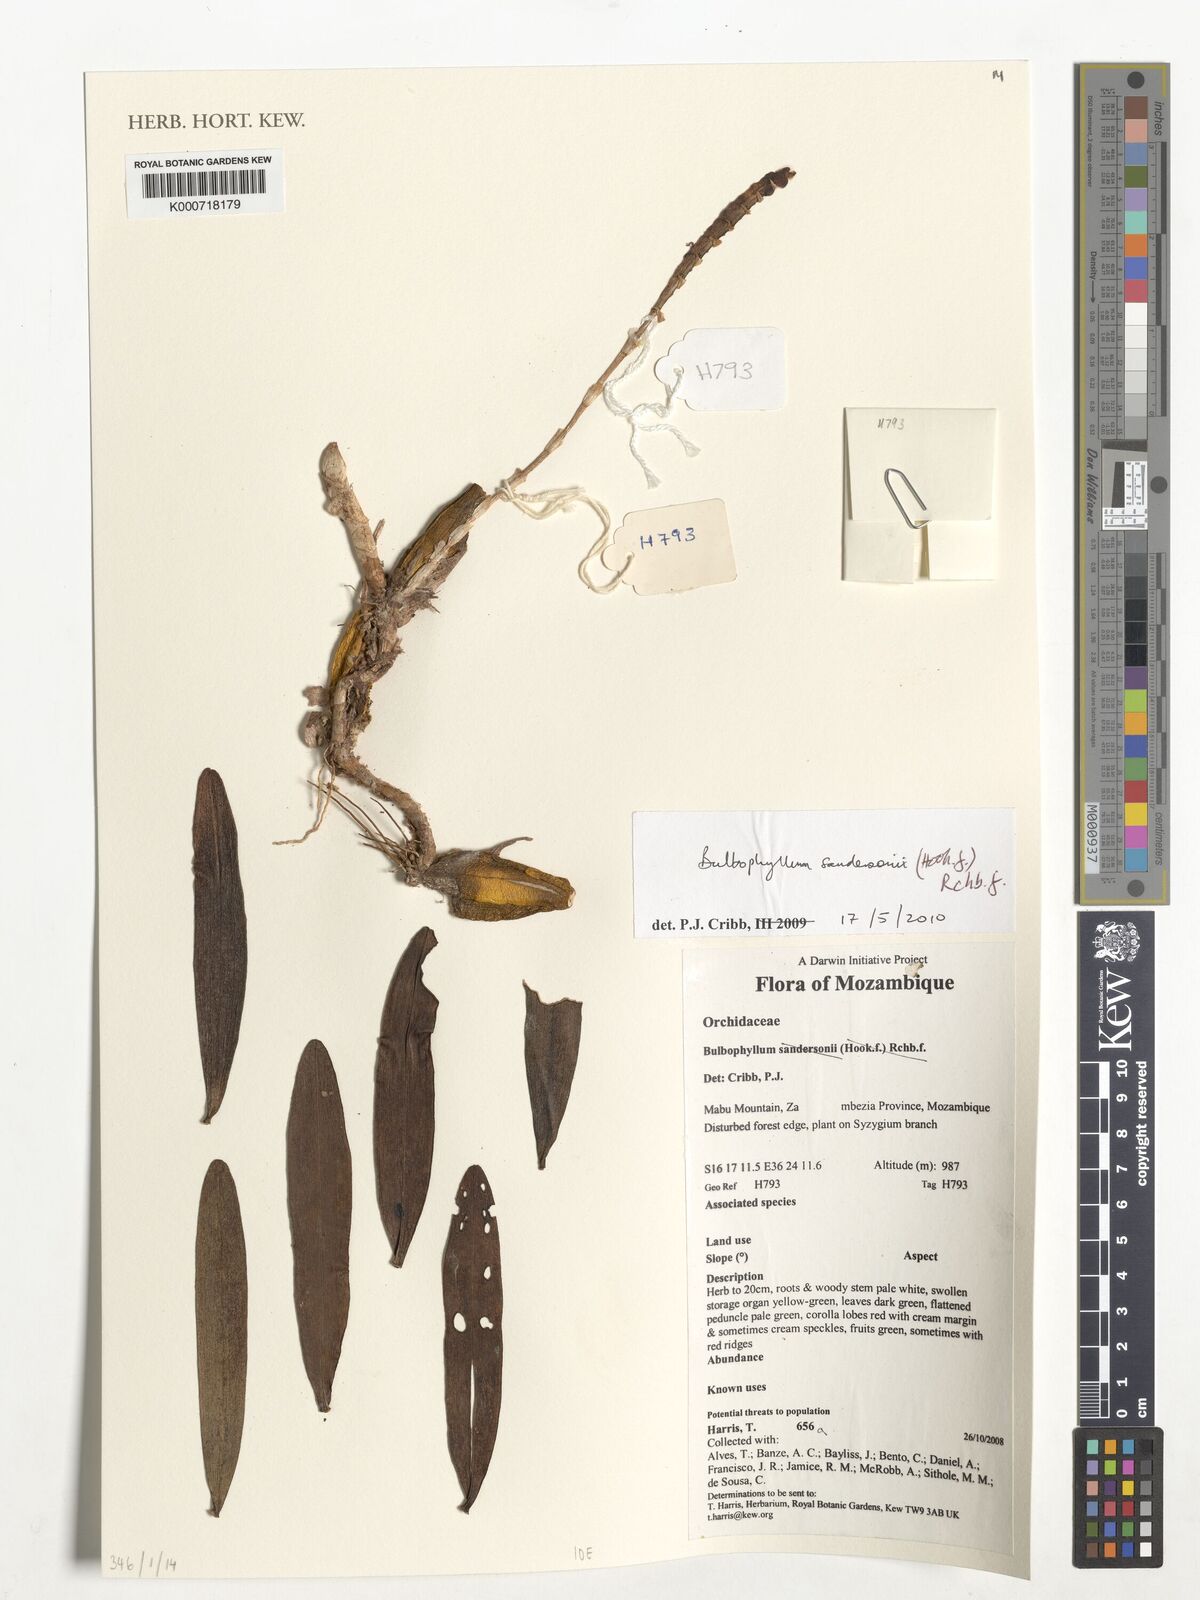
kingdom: Plantae
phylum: Tracheophyta
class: Liliopsida
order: Asparagales
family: Orchidaceae
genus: Bulbophyllum
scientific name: Bulbophyllum sandersonii
